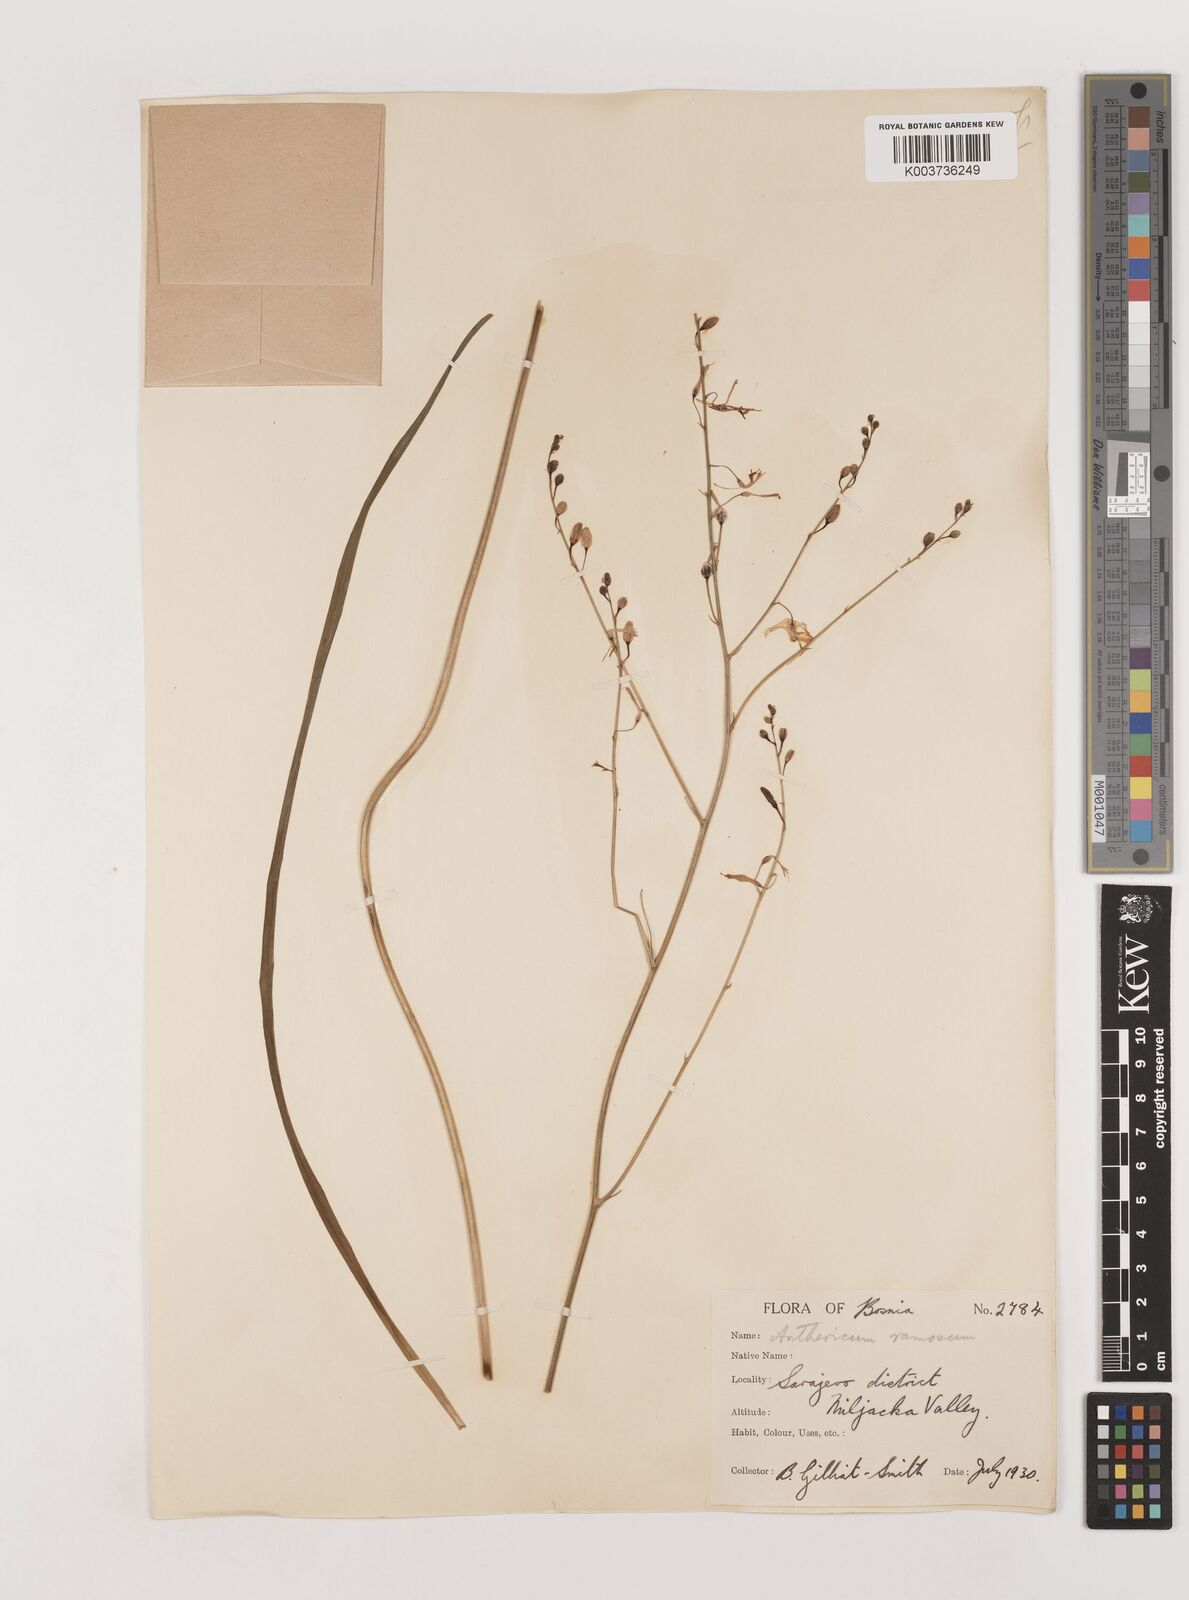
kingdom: Plantae
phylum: Tracheophyta
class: Liliopsida
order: Asparagales
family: Asparagaceae
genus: Anthericum
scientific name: Anthericum ramosum
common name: Branched st. bernard's-lily
